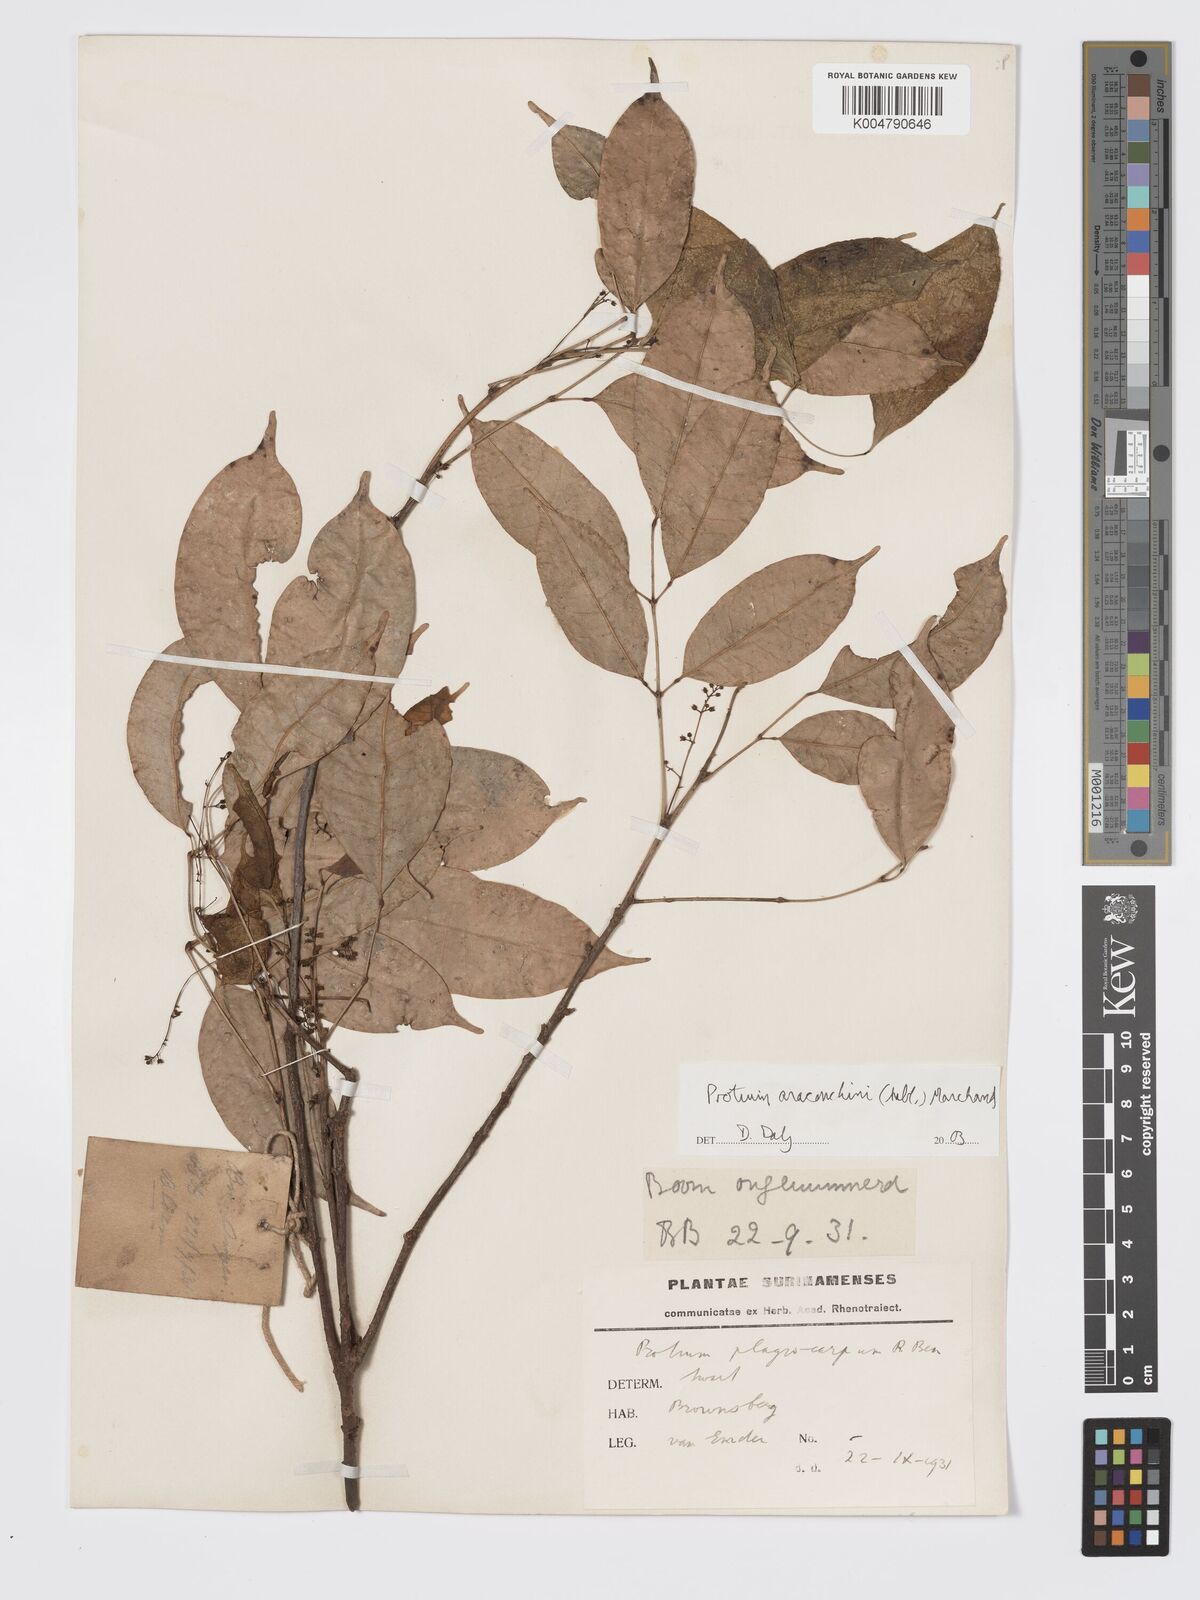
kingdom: Plantae
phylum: Tracheophyta
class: Magnoliopsida
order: Sapindales
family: Burseraceae
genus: Protium
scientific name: Protium aracouchini
